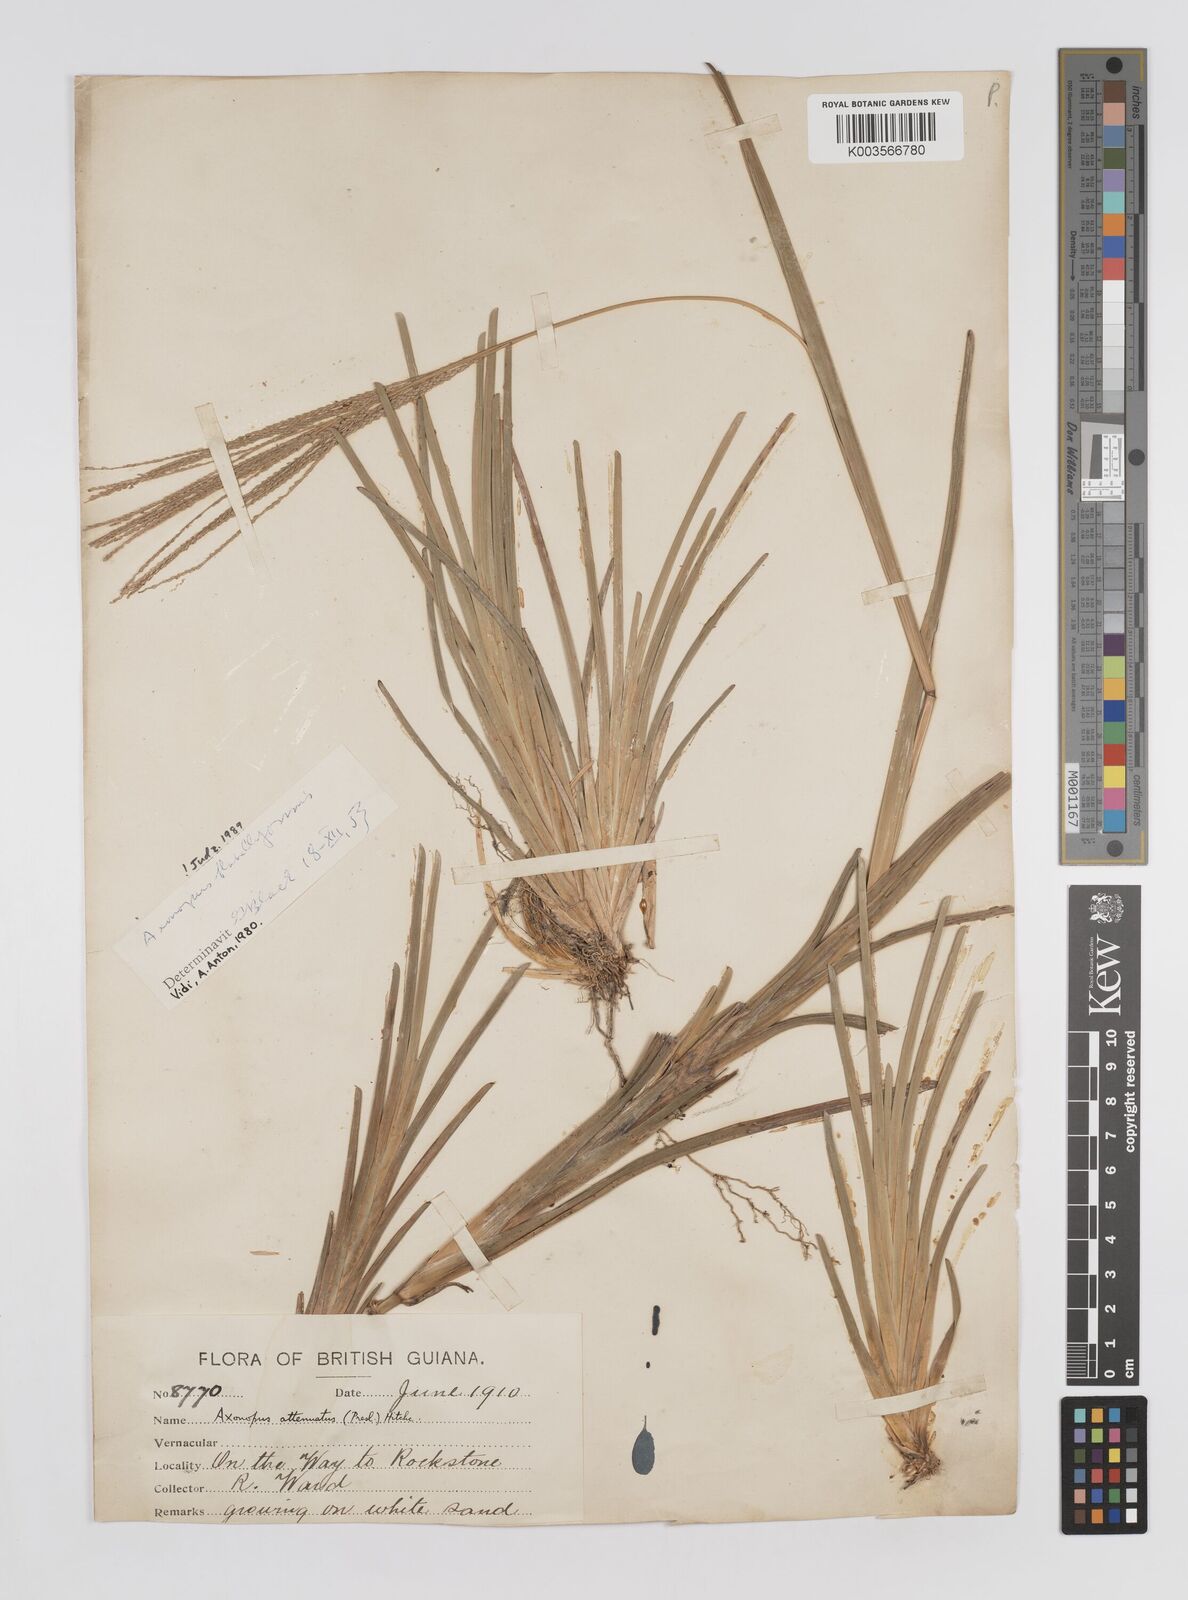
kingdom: Plantae
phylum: Tracheophyta
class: Liliopsida
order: Poales
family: Poaceae
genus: Axonopus
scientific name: Axonopus flabelliformis
